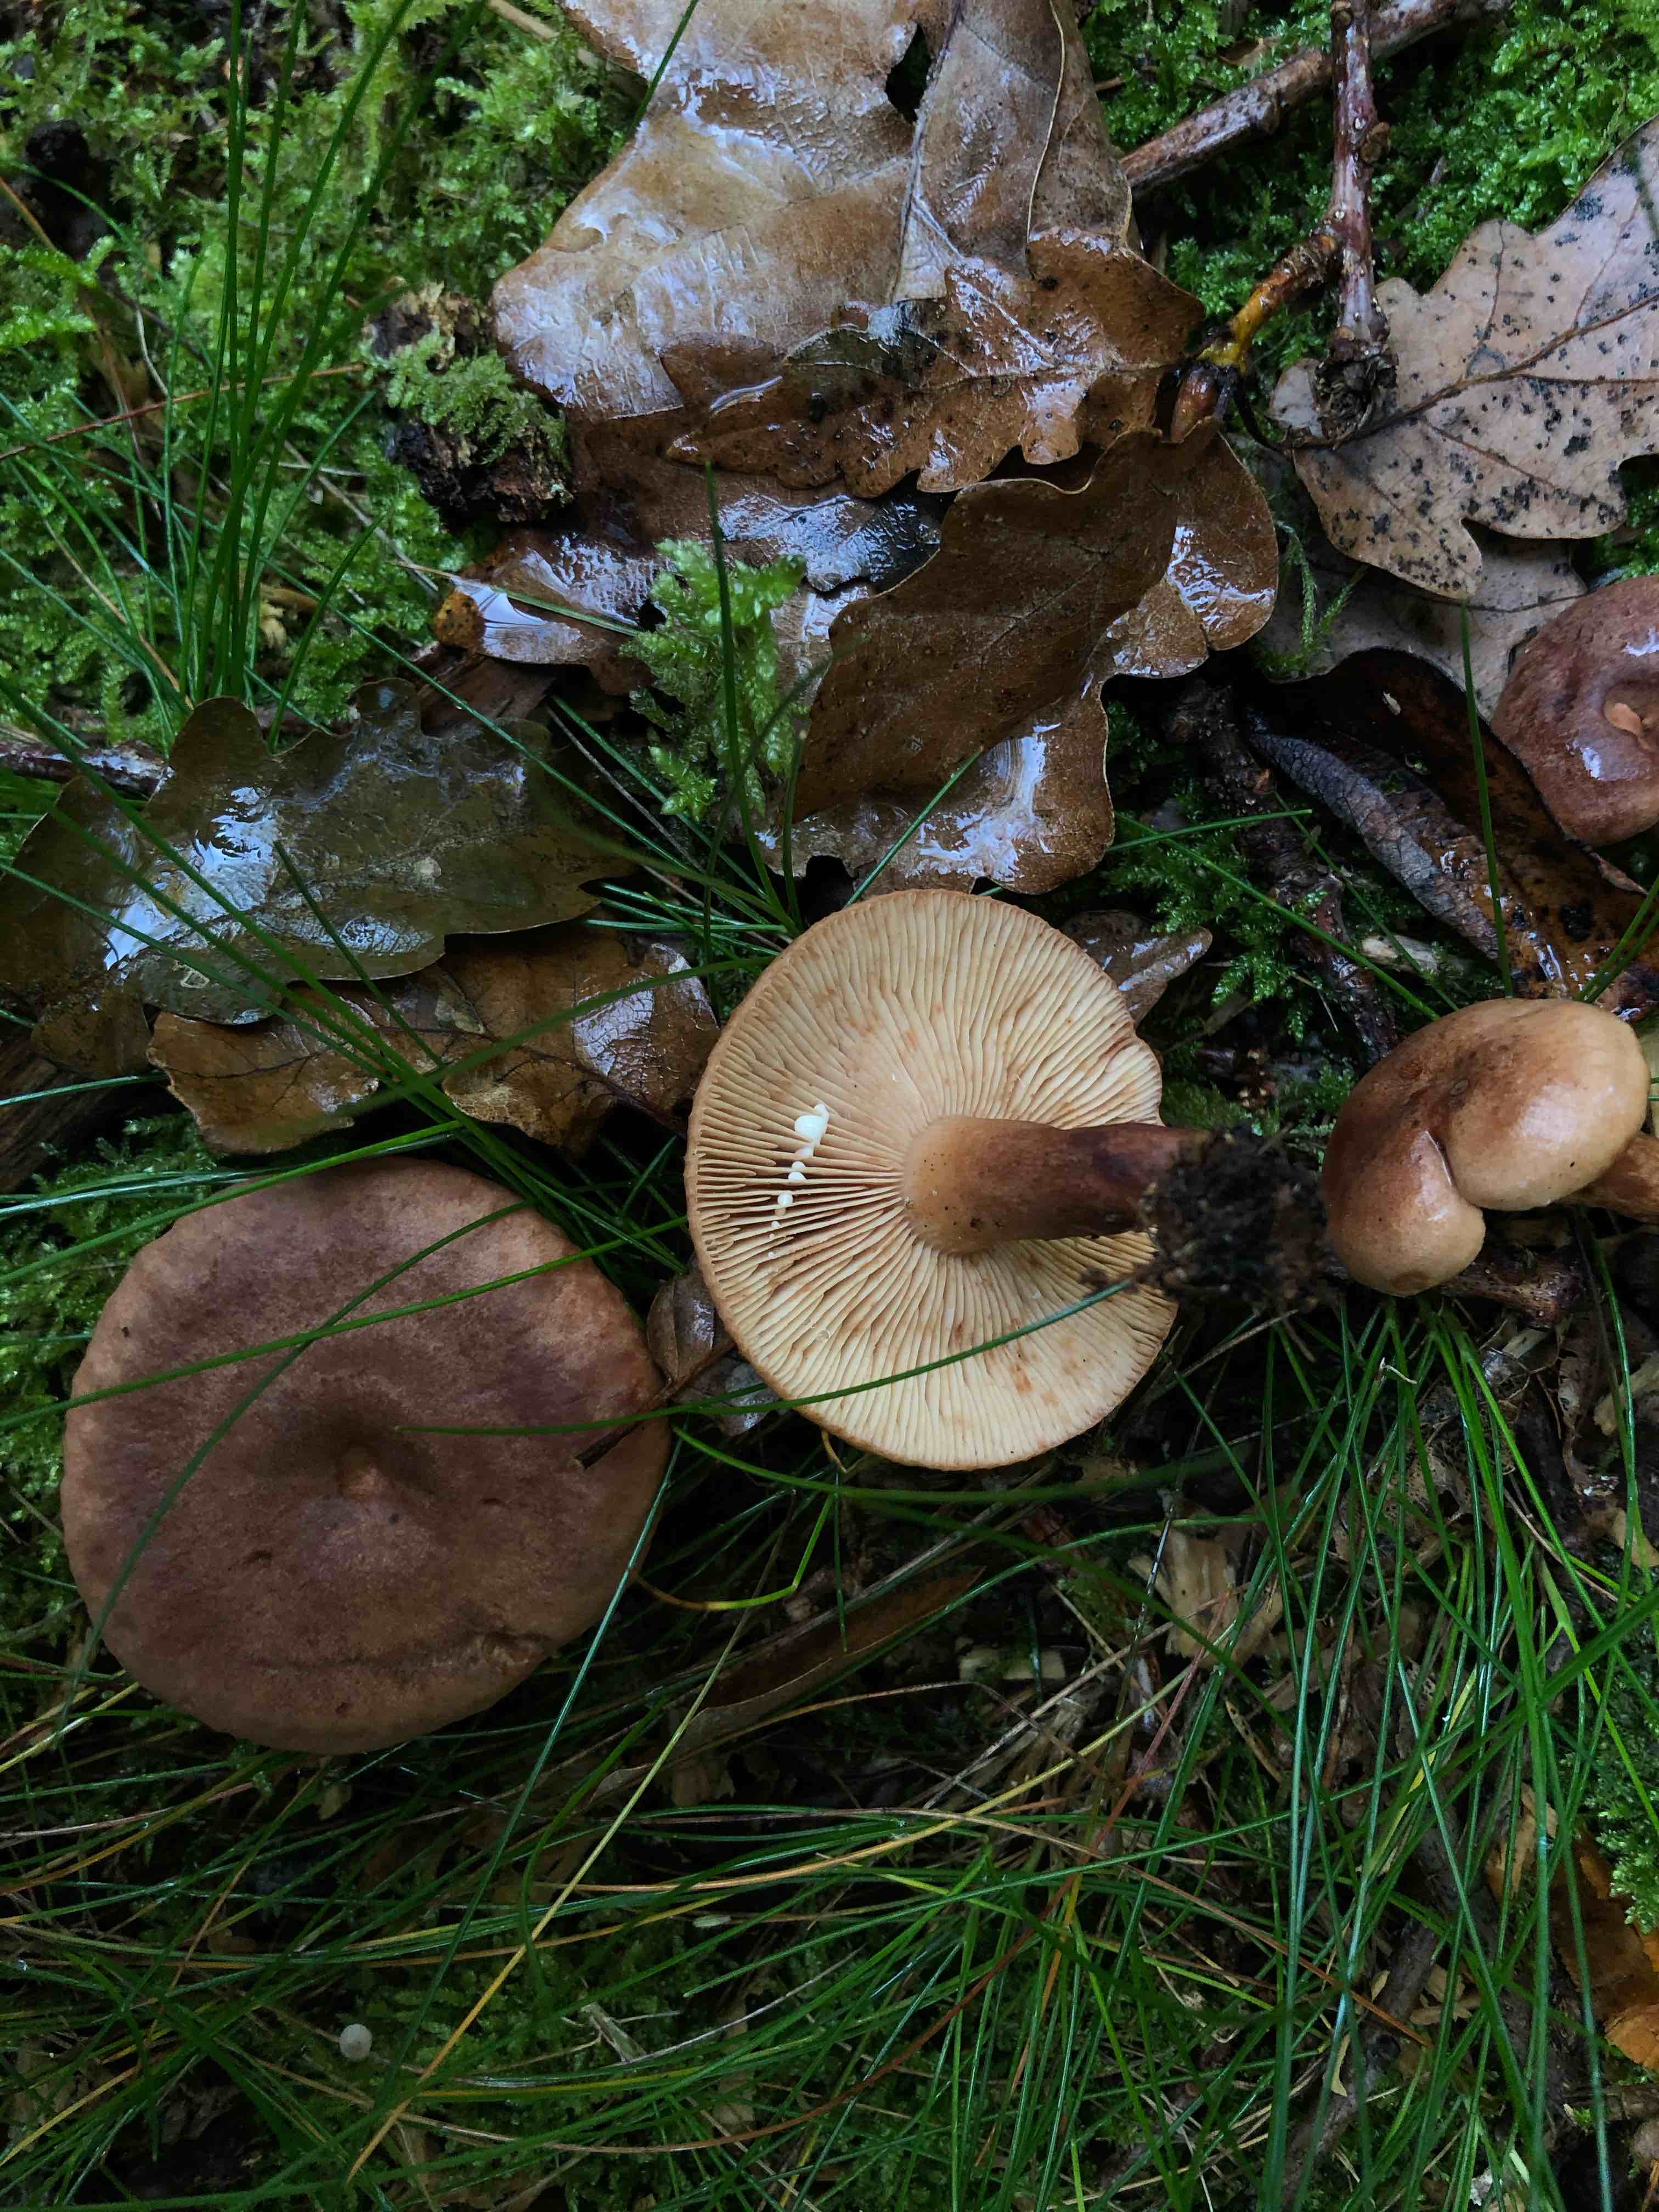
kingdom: Fungi
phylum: Basidiomycota
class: Agaricomycetes
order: Russulales
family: Russulaceae
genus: Lactarius
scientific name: Lactarius quietus
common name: ege-mælkehat
